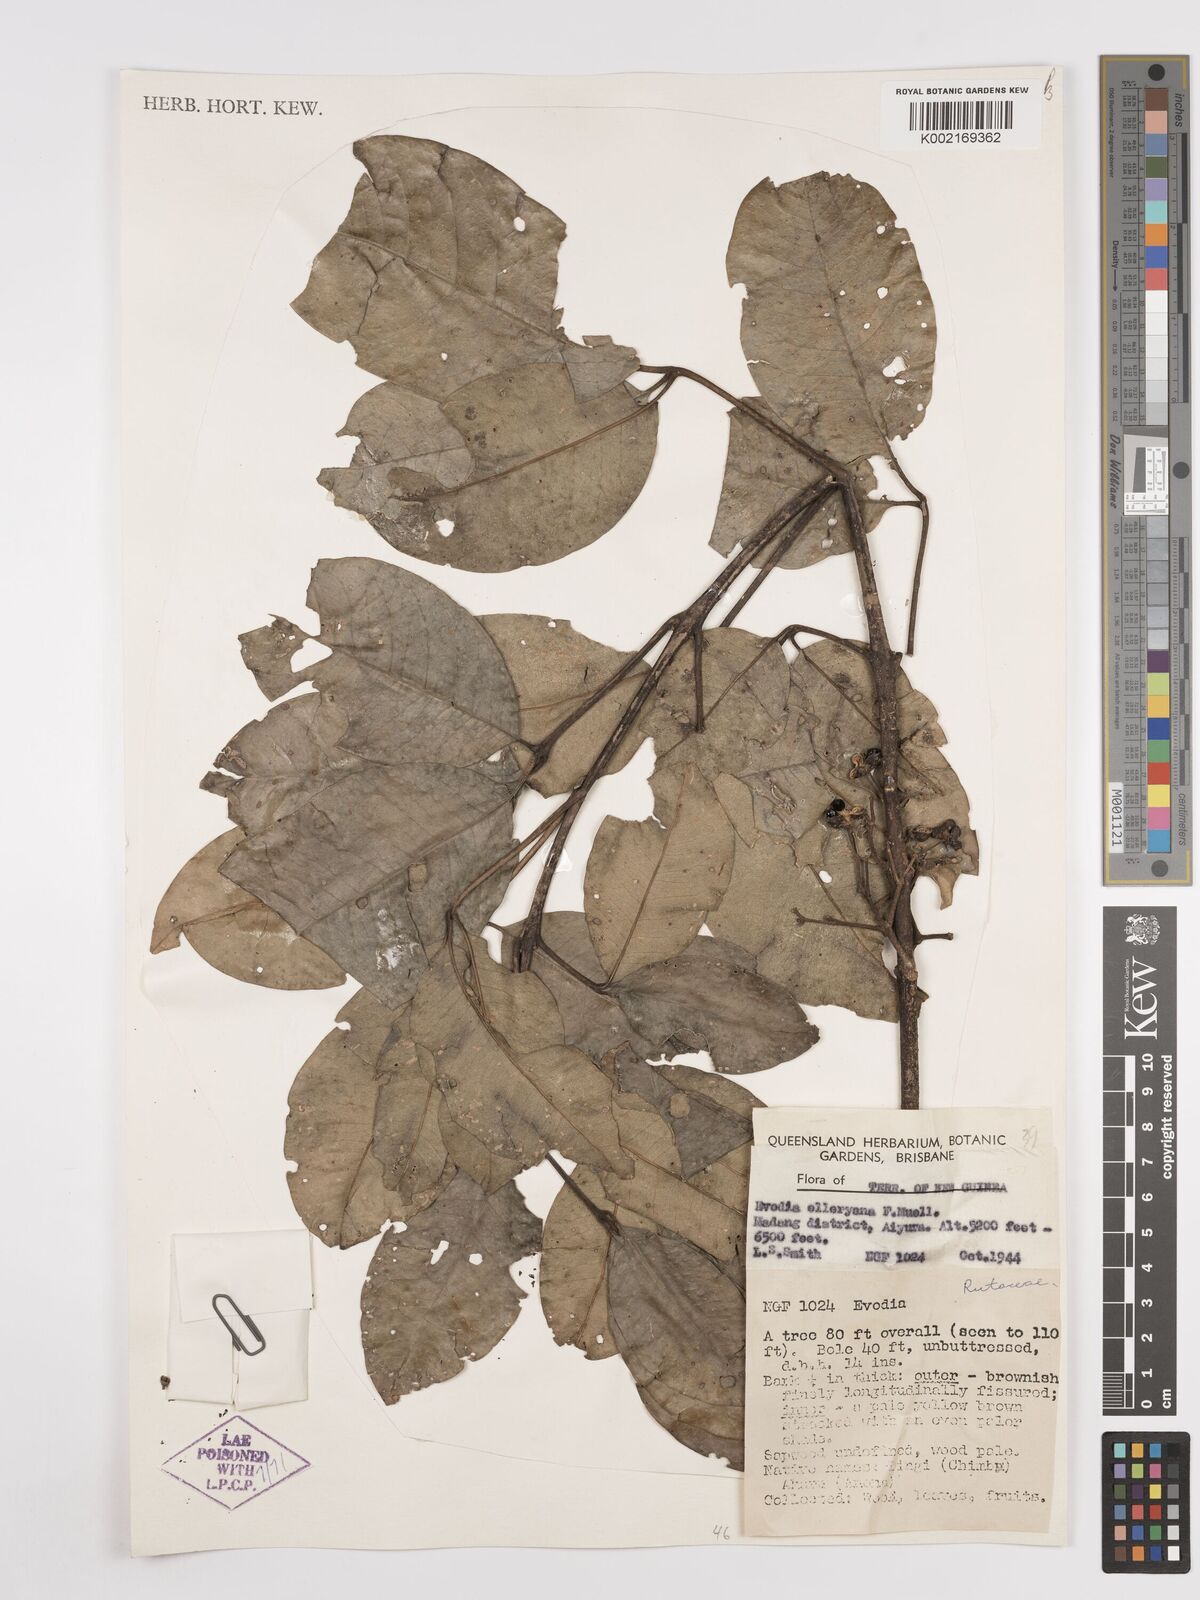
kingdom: Plantae
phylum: Tracheophyta
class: Magnoliopsida
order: Sapindales
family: Rutaceae
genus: Melicope
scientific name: Melicope elleryana
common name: Pink euodia
